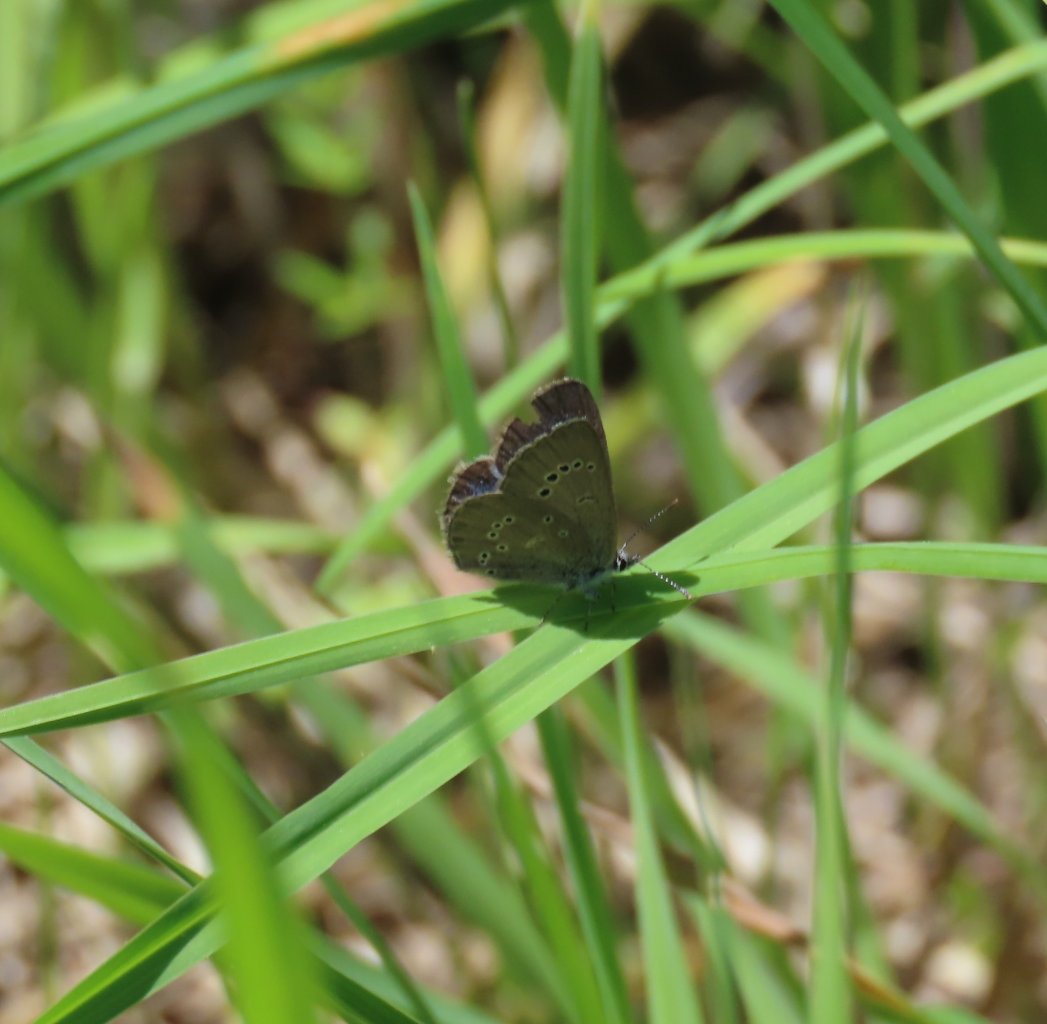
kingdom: Animalia
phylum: Arthropoda
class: Insecta
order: Lepidoptera
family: Lycaenidae
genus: Glaucopsyche
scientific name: Glaucopsyche lygdamus
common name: Silvery Blue
